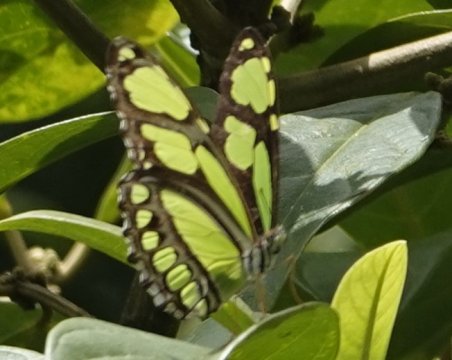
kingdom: Animalia
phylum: Arthropoda
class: Insecta
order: Lepidoptera
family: Nymphalidae
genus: Philaethria
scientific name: Philaethria dido
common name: Northern Green Longwing
